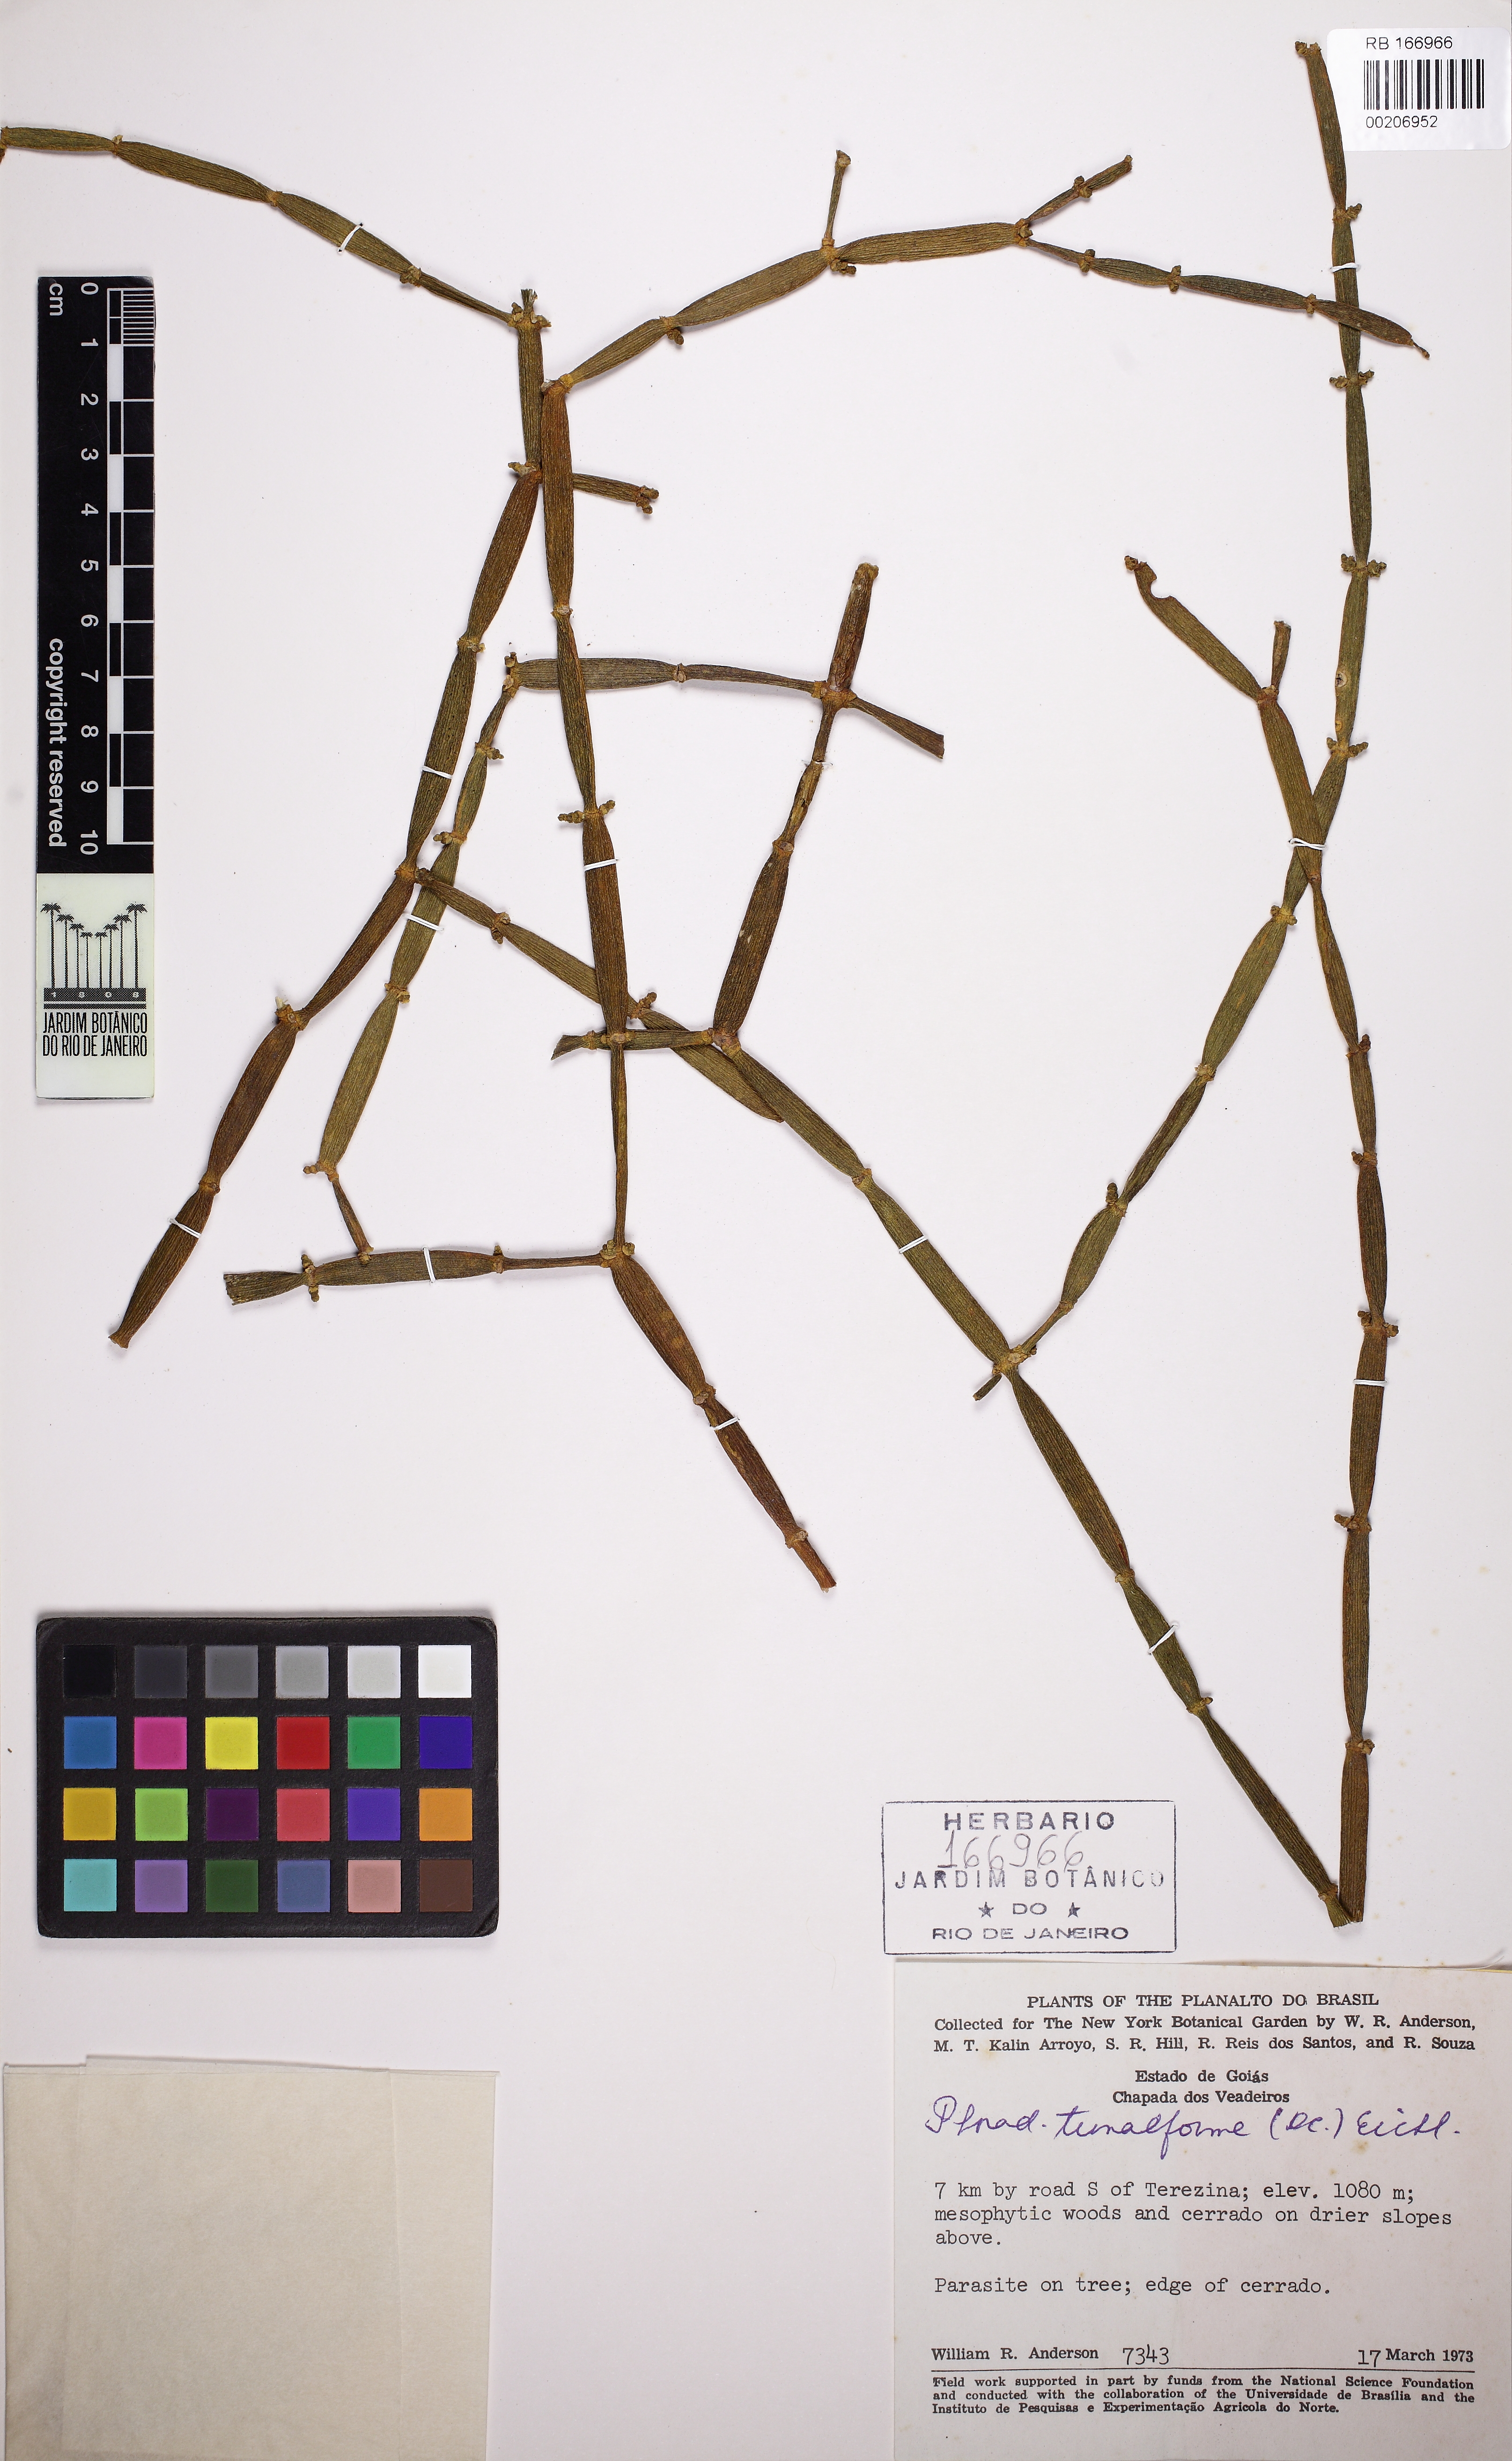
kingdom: Plantae
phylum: Tracheophyta
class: Magnoliopsida
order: Santalales
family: Viscaceae
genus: Phoradendron
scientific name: Phoradendron tunaeforme
